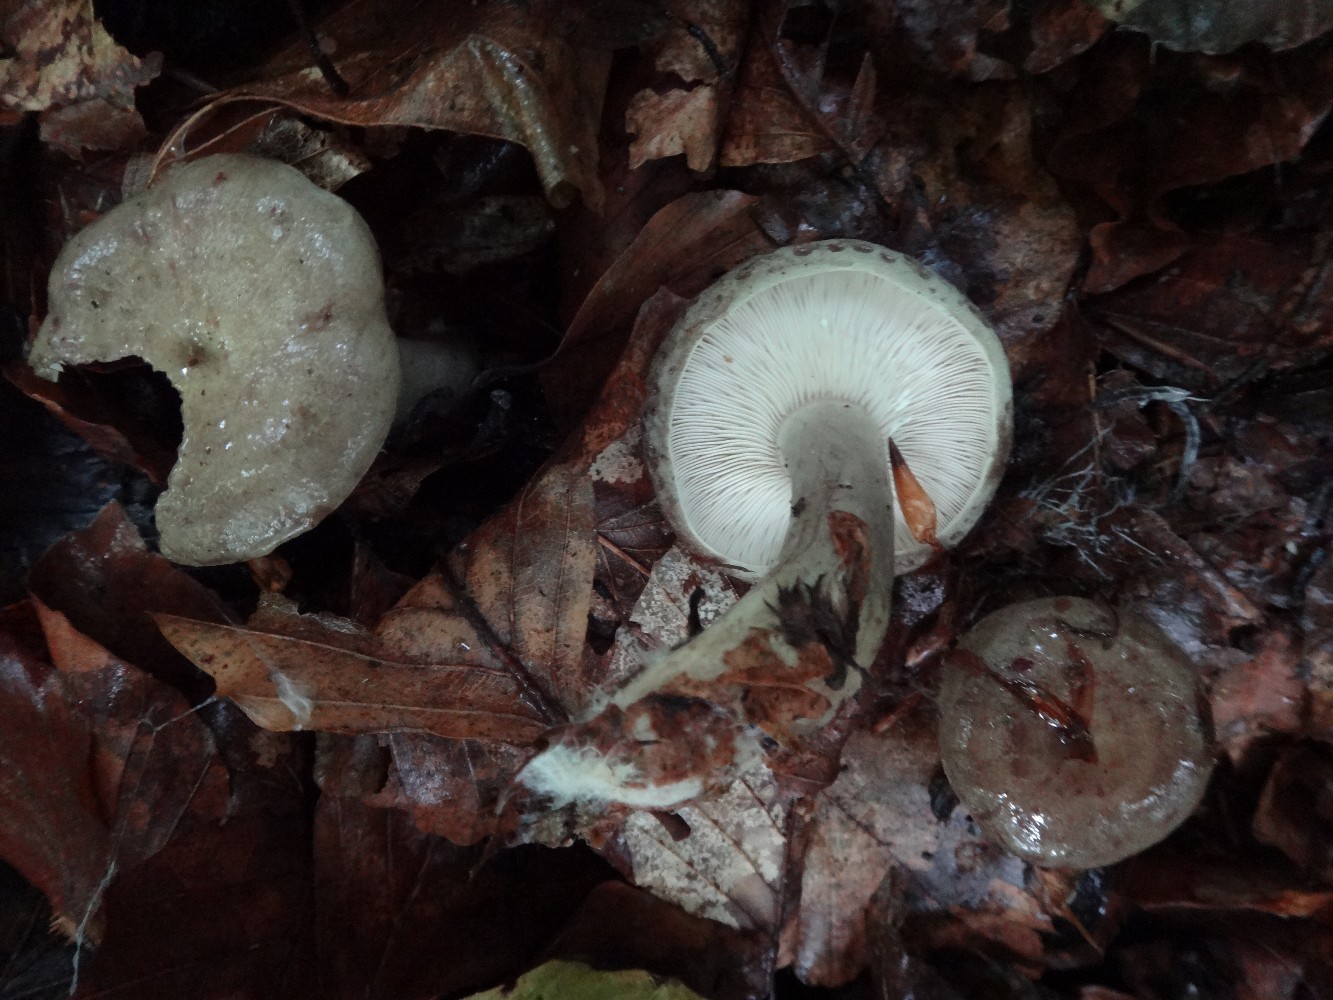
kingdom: Fungi
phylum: Basidiomycota
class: Agaricomycetes
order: Russulales
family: Russulaceae
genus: Lactarius
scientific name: Lactarius blennius
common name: dråbeplettet mælkehat
